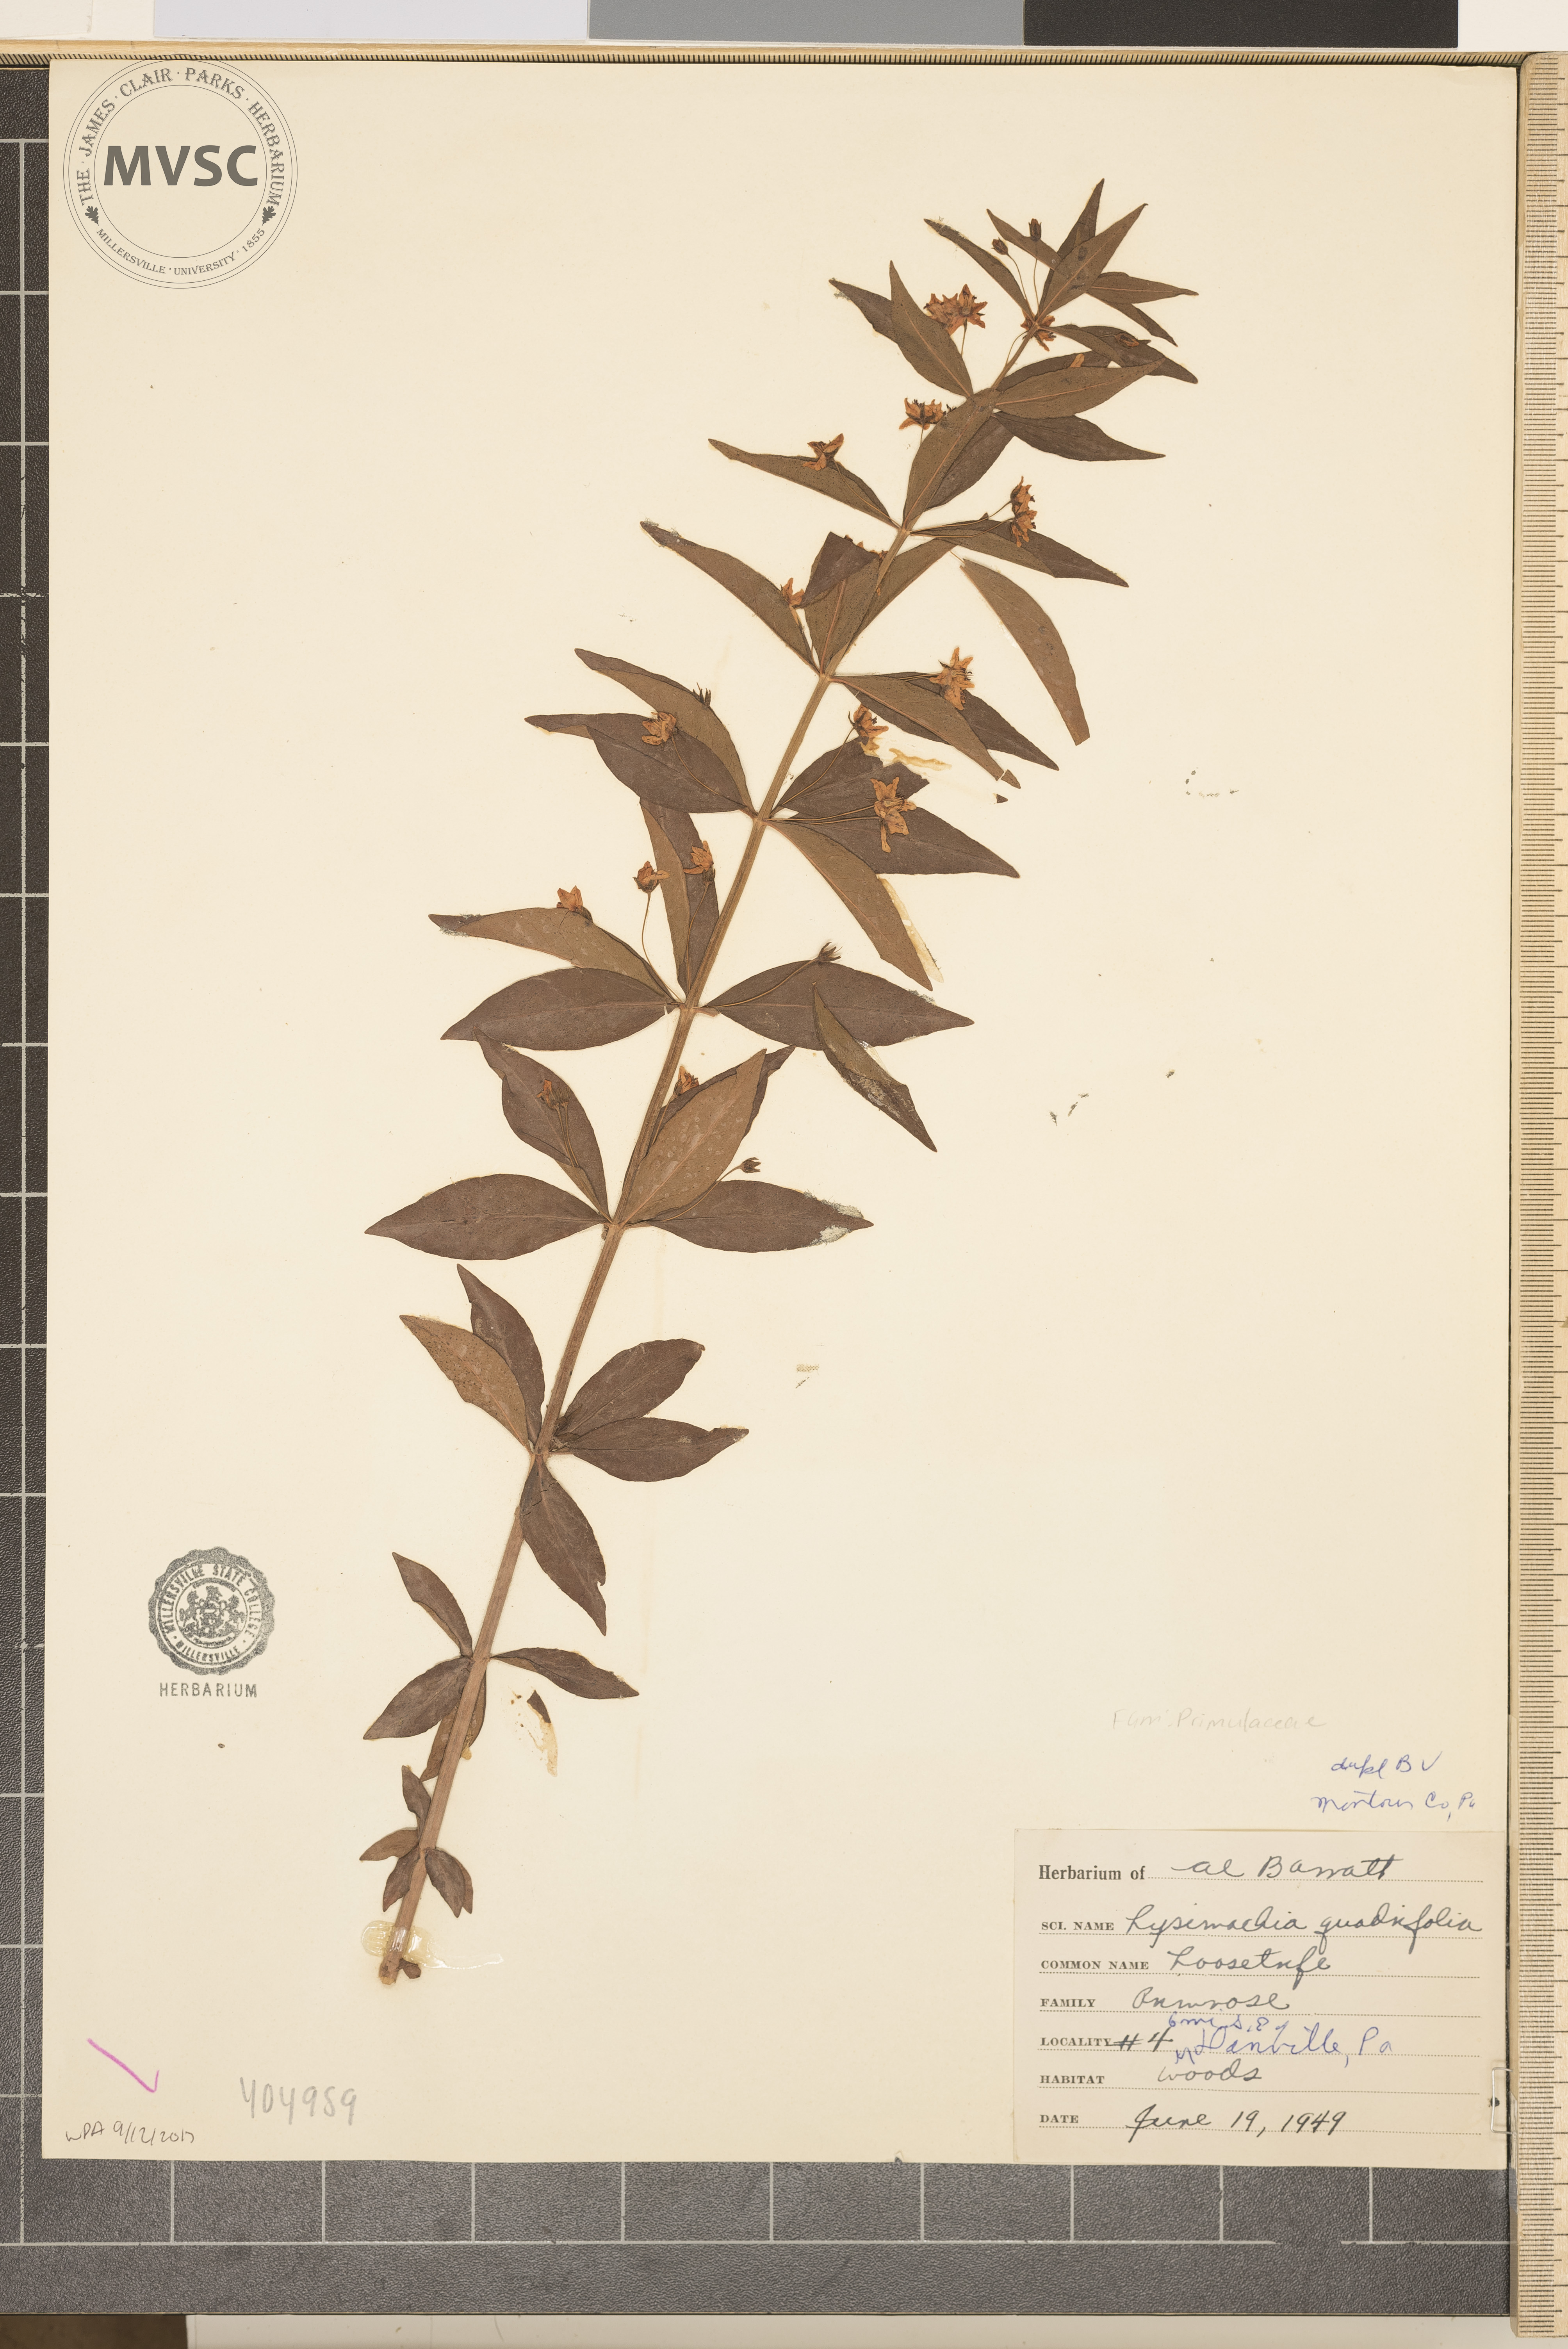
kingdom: Plantae
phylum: Tracheophyta
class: Magnoliopsida
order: Ericales
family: Primulaceae
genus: Lysimachia
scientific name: Lysimachia quadrifolia
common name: Whorled loosestrife
